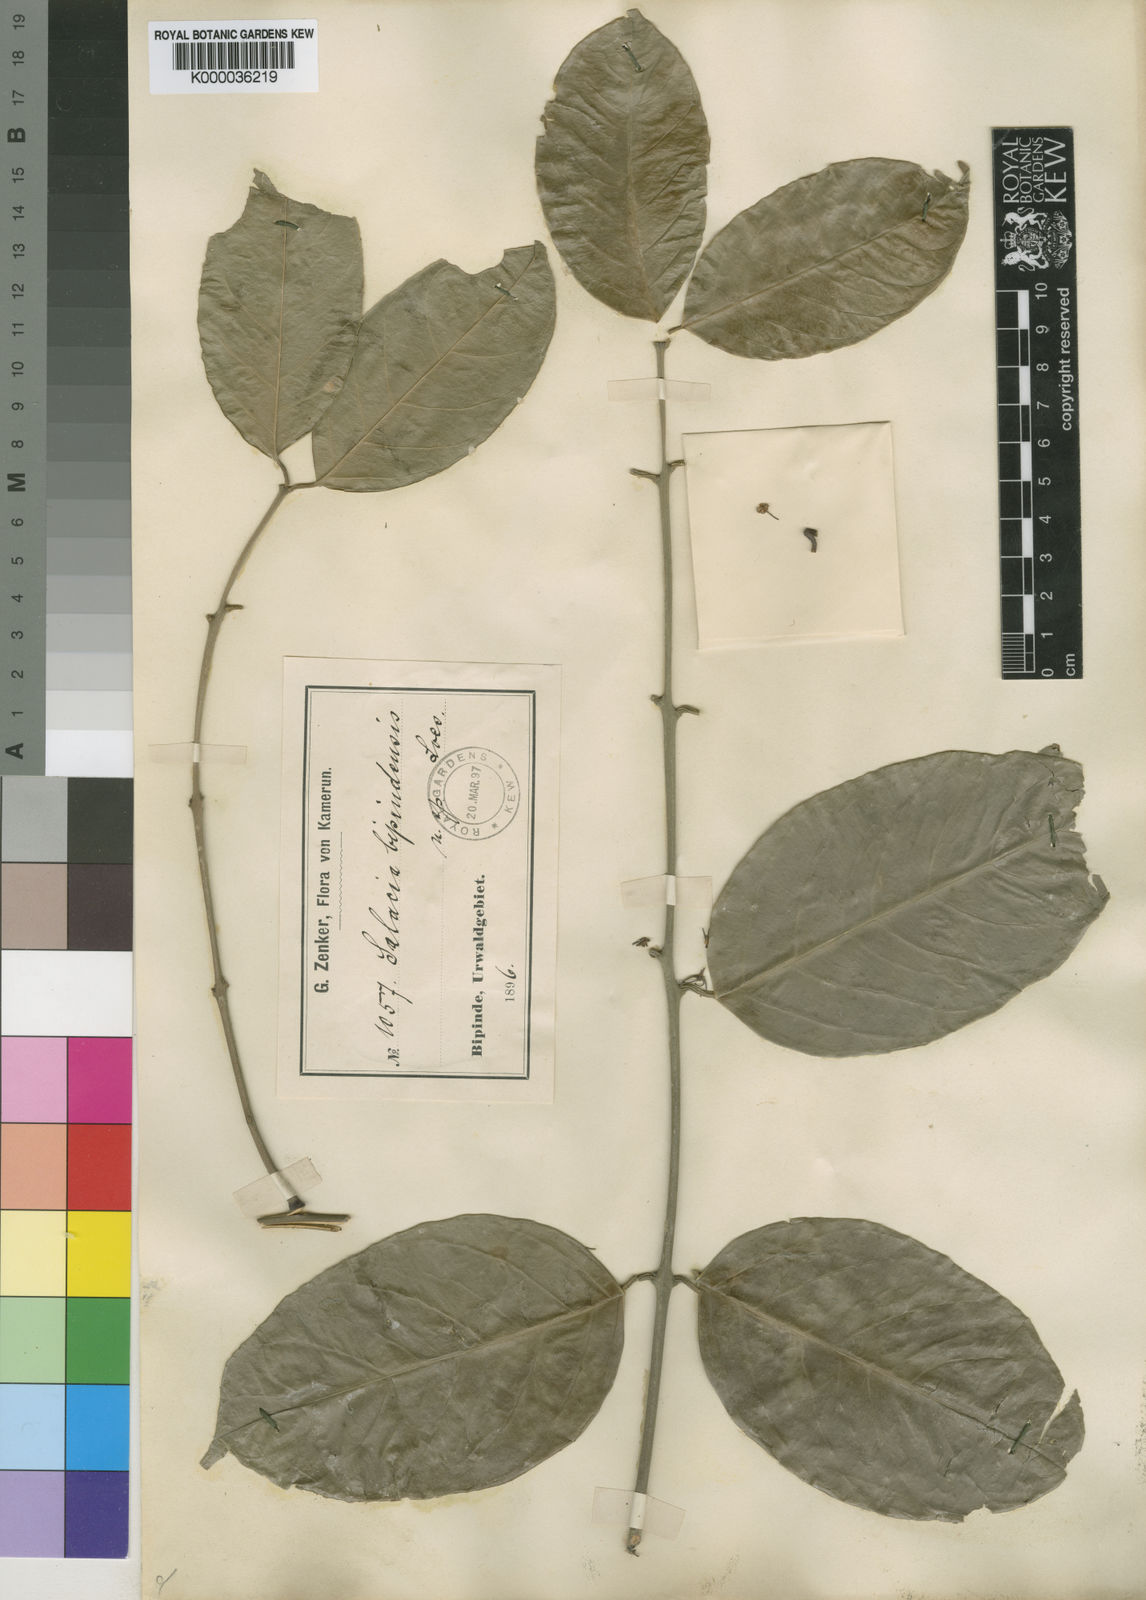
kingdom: Plantae
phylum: Tracheophyta
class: Magnoliopsida
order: Celastrales
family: Celastraceae
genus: Salacia
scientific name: Salacia nitida
